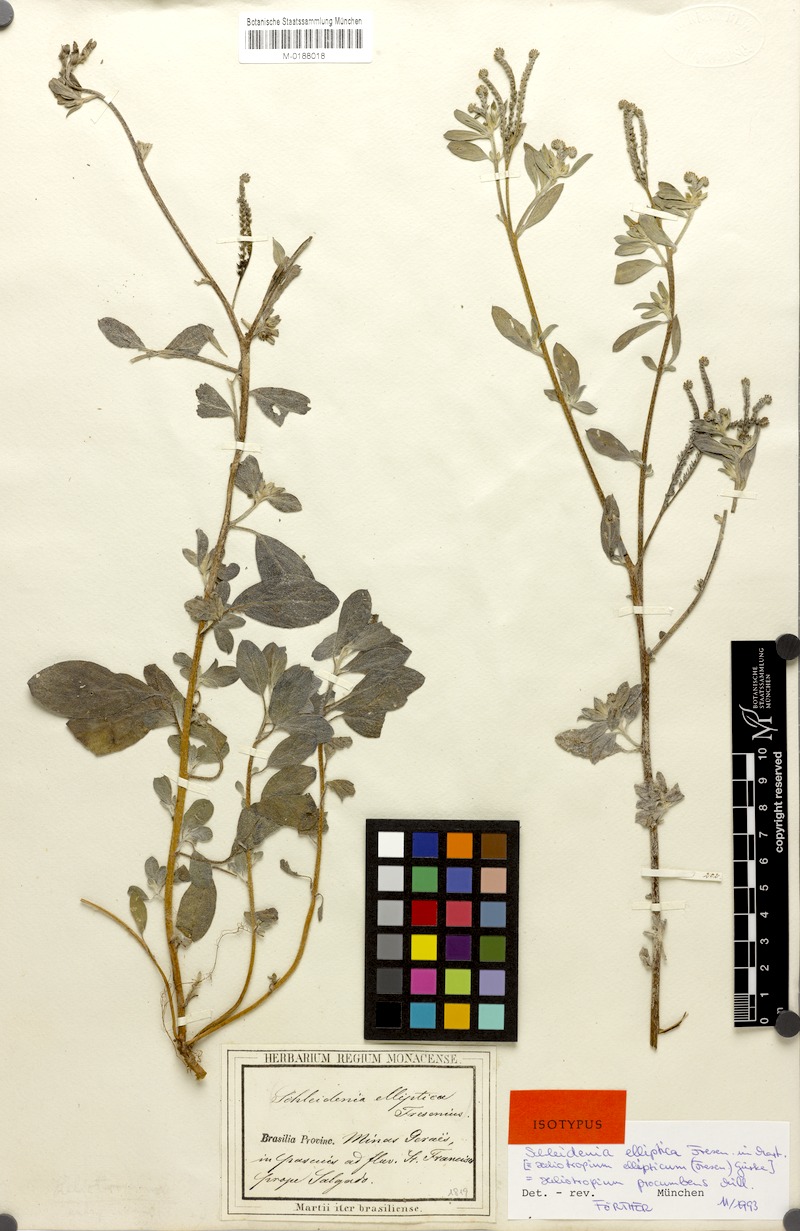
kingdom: Plantae
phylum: Tracheophyta
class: Magnoliopsida
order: Boraginales
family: Heliotropiaceae
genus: Euploca
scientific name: Euploca procumbens
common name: Fourspike heliotrope
